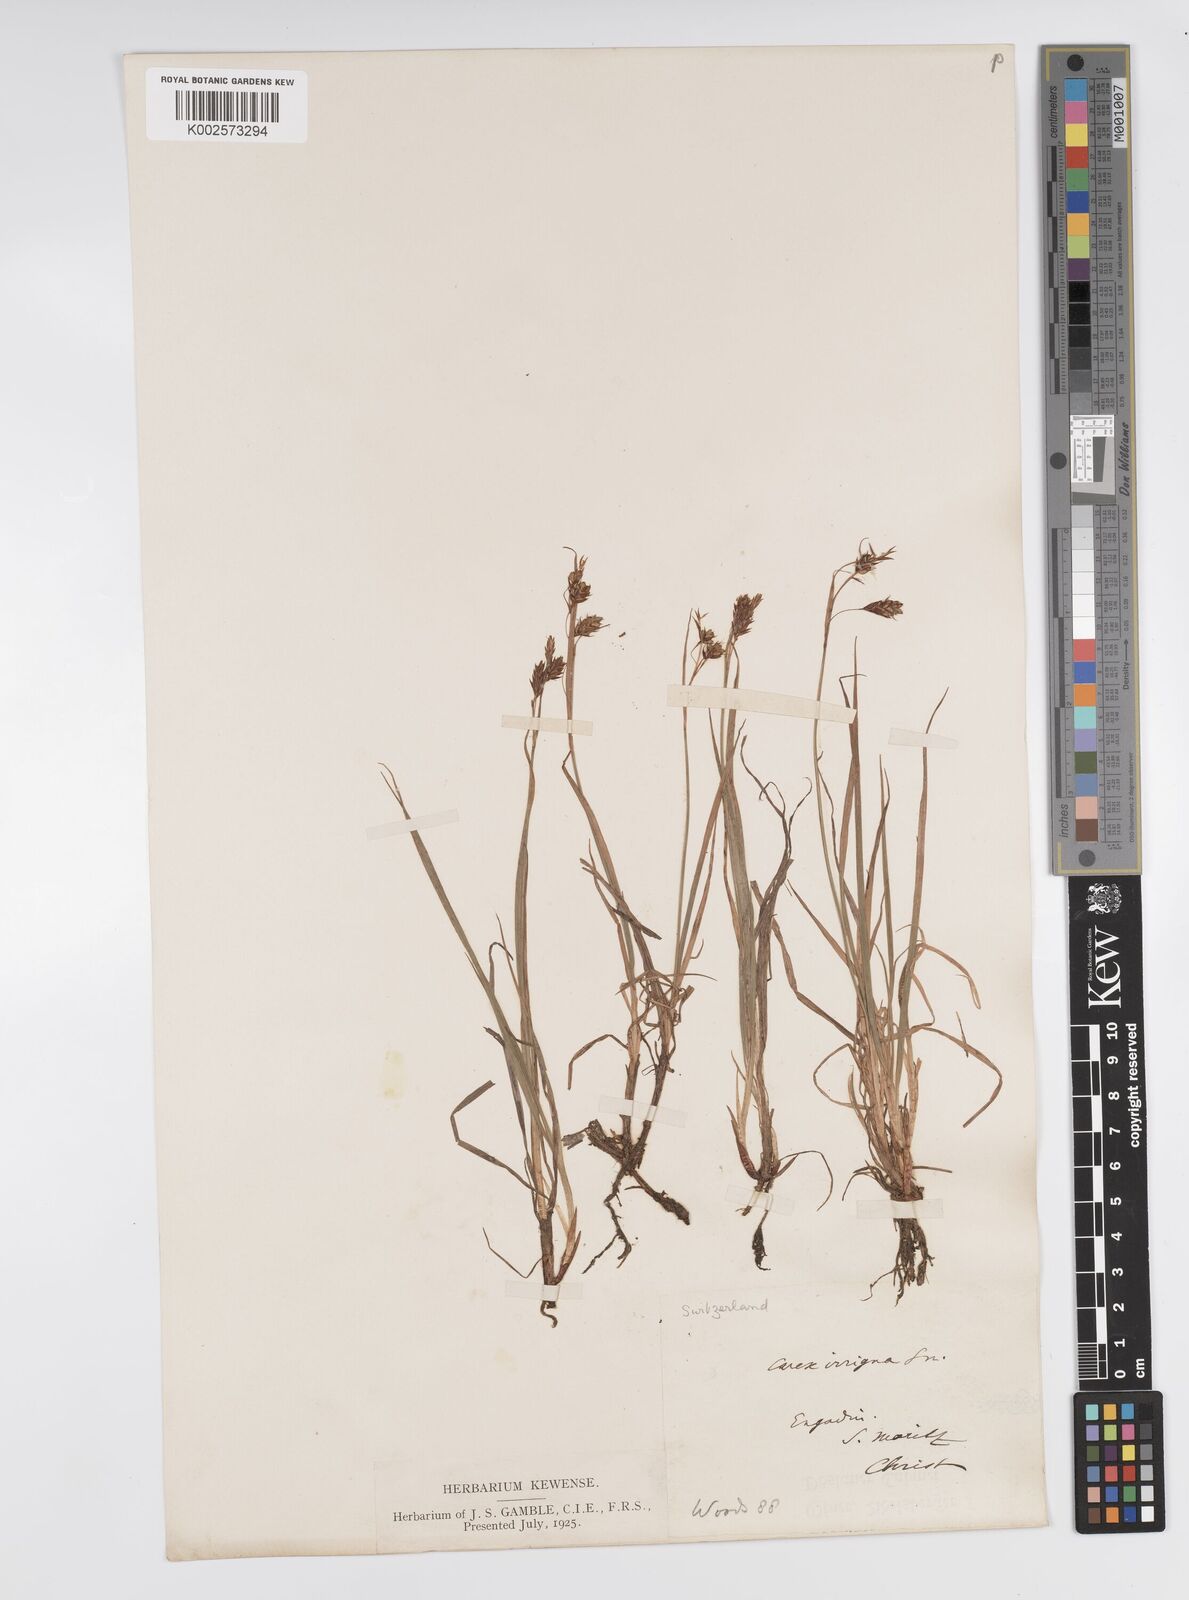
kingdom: Plantae
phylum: Tracheophyta
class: Liliopsida
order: Poales
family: Cyperaceae
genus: Carex
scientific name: Carex magellanica
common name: Bog sedge
